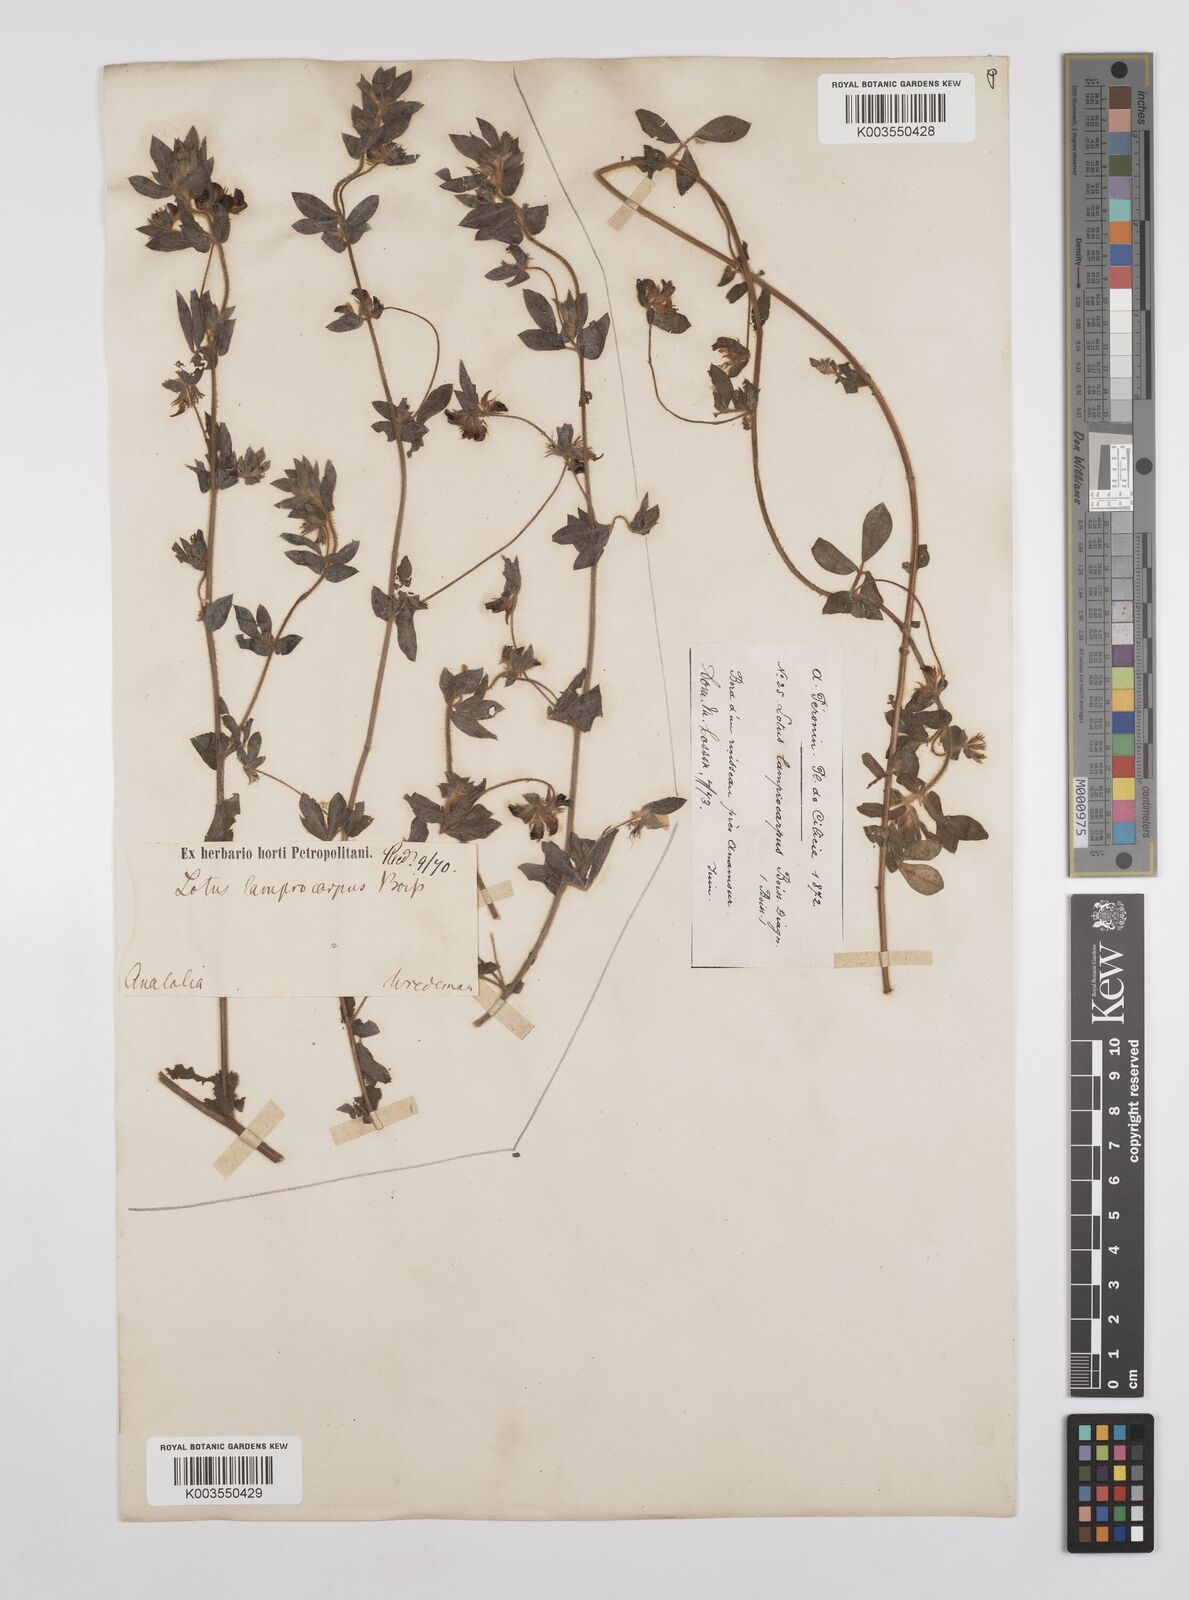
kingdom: Plantae
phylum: Tracheophyta
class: Magnoliopsida
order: Fabales
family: Fabaceae
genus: Lotus
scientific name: Lotus palustris
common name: Large birds-foot trefoil
